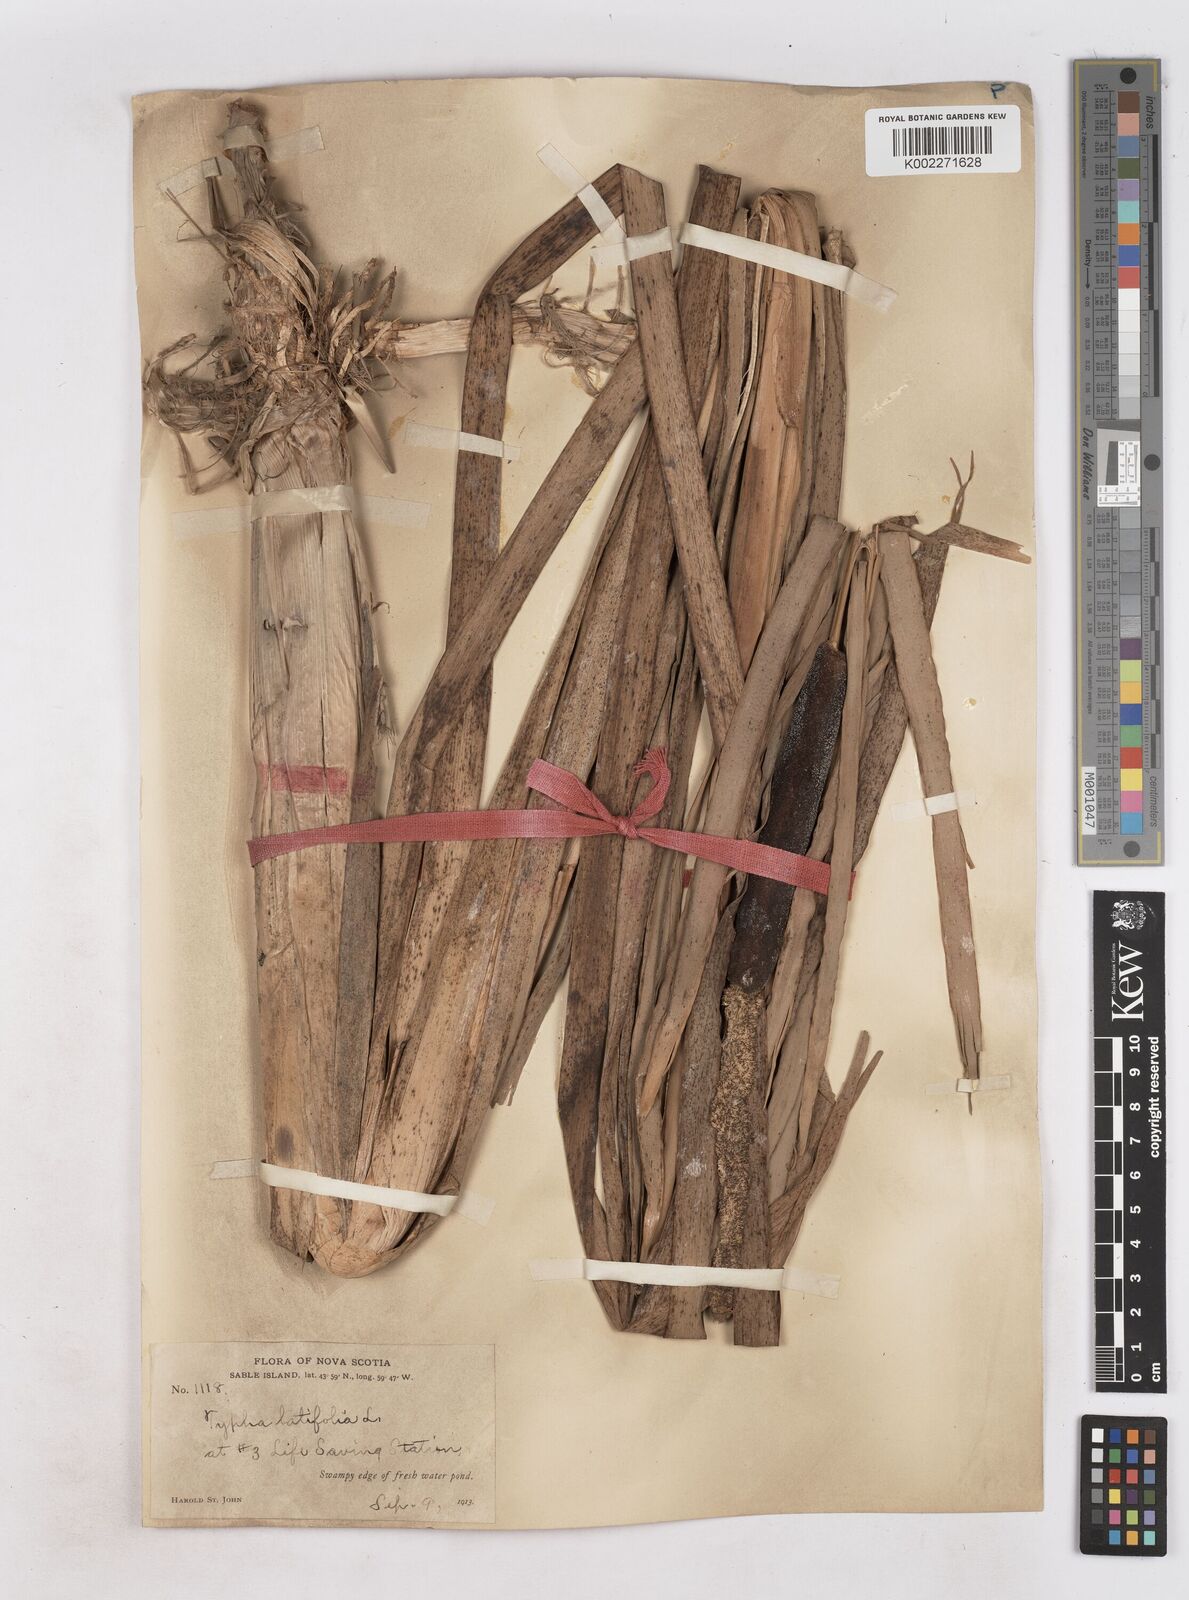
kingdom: Plantae
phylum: Tracheophyta
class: Liliopsida
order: Poales
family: Typhaceae
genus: Typha
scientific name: Typha latifolia
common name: Broadleaf cattail
